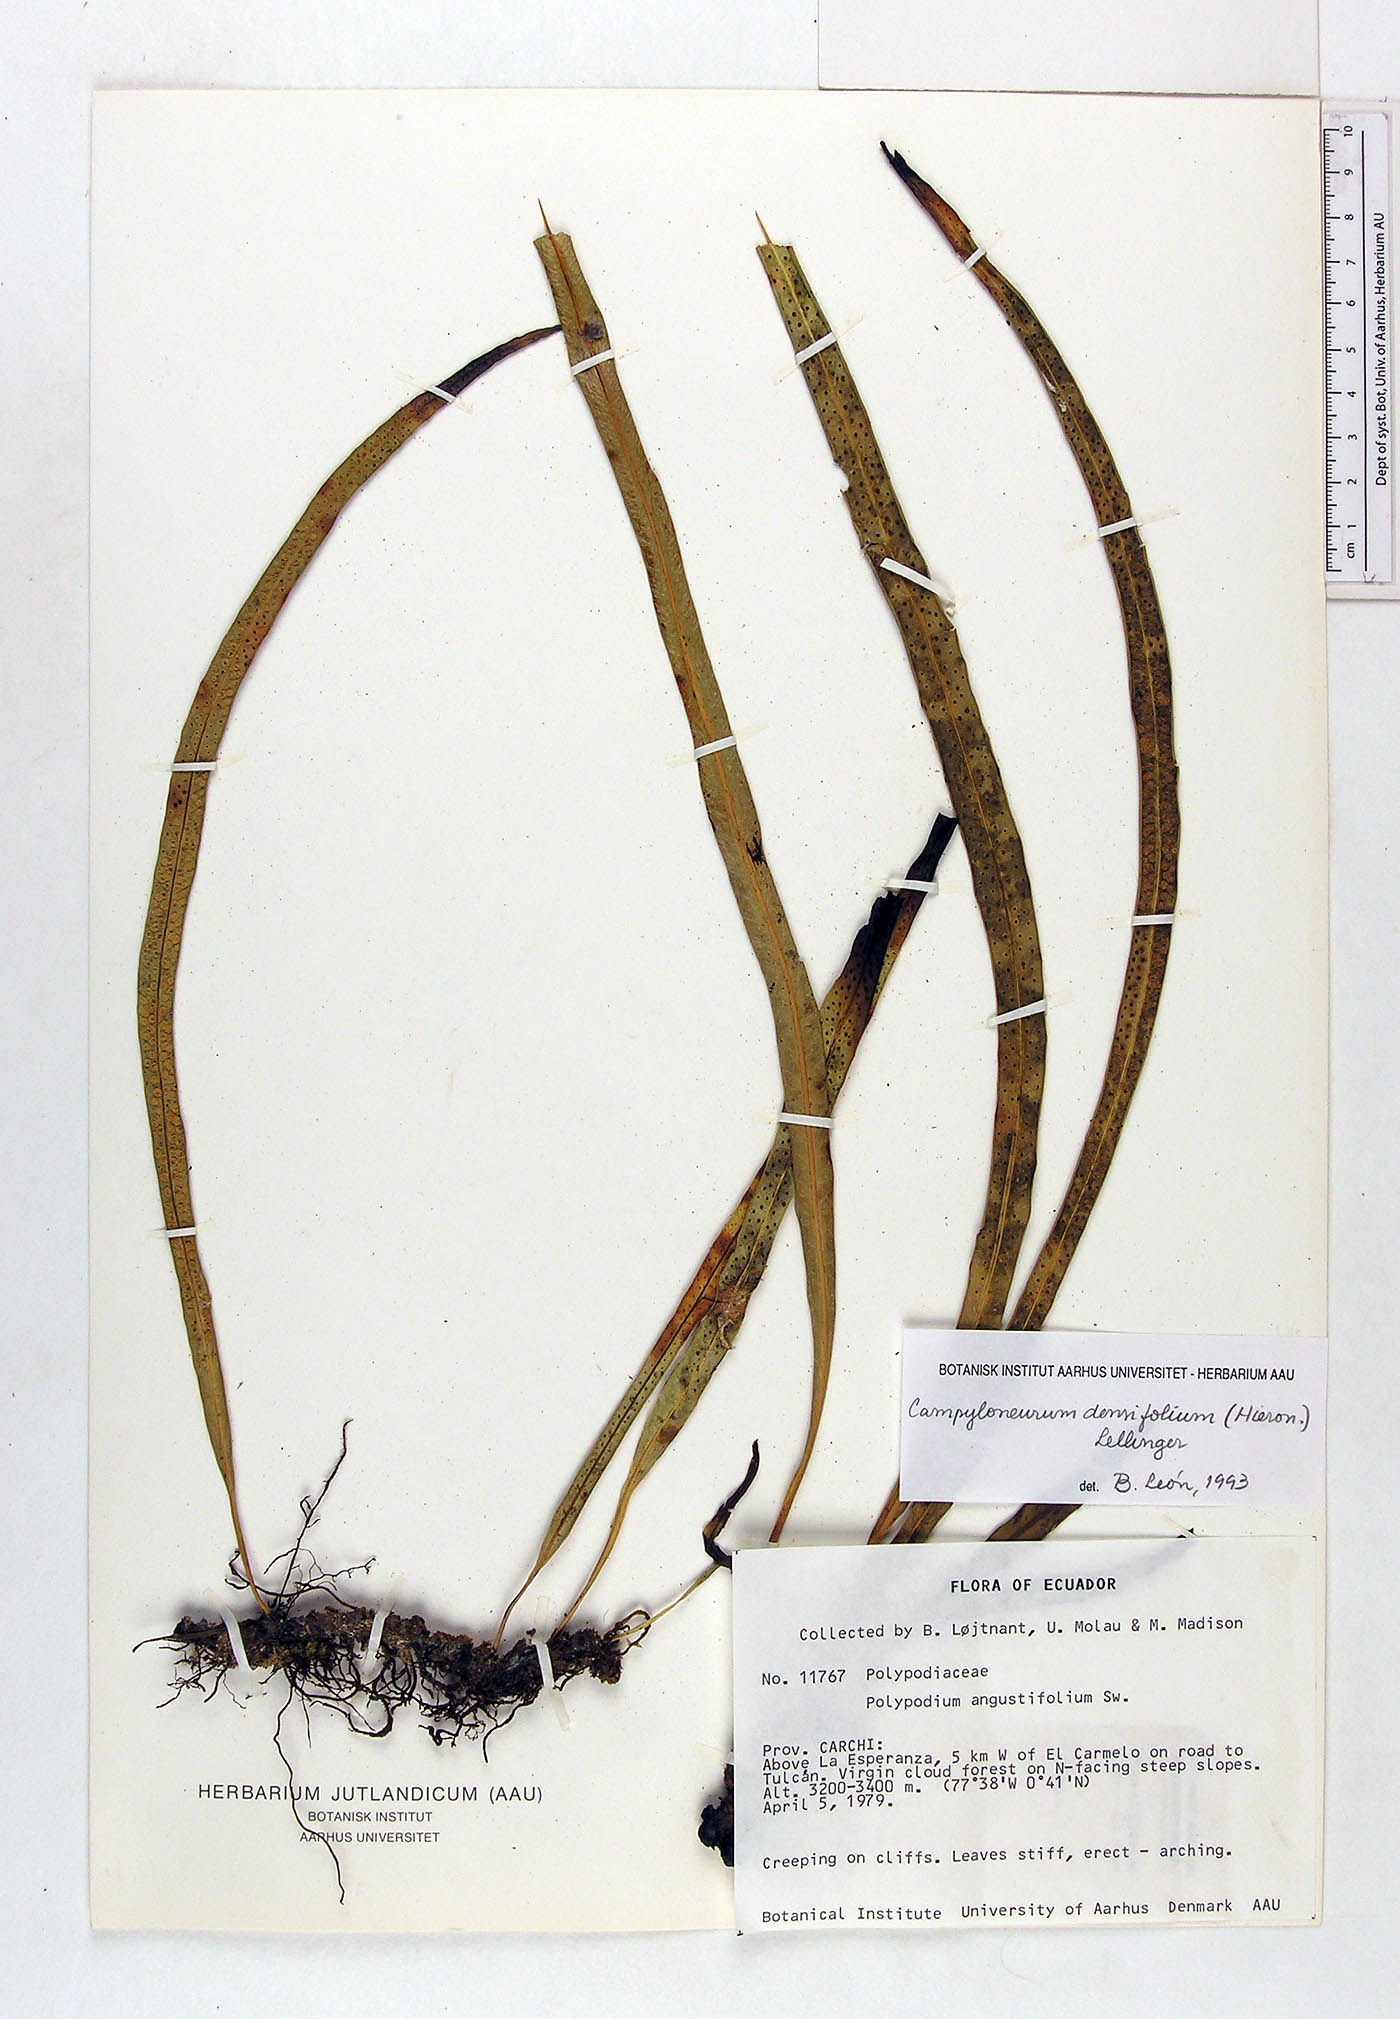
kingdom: Plantae
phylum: Tracheophyta
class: Polypodiopsida
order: Polypodiales
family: Polypodiaceae
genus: Campyloneurum
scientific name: Campyloneurum densifolium
